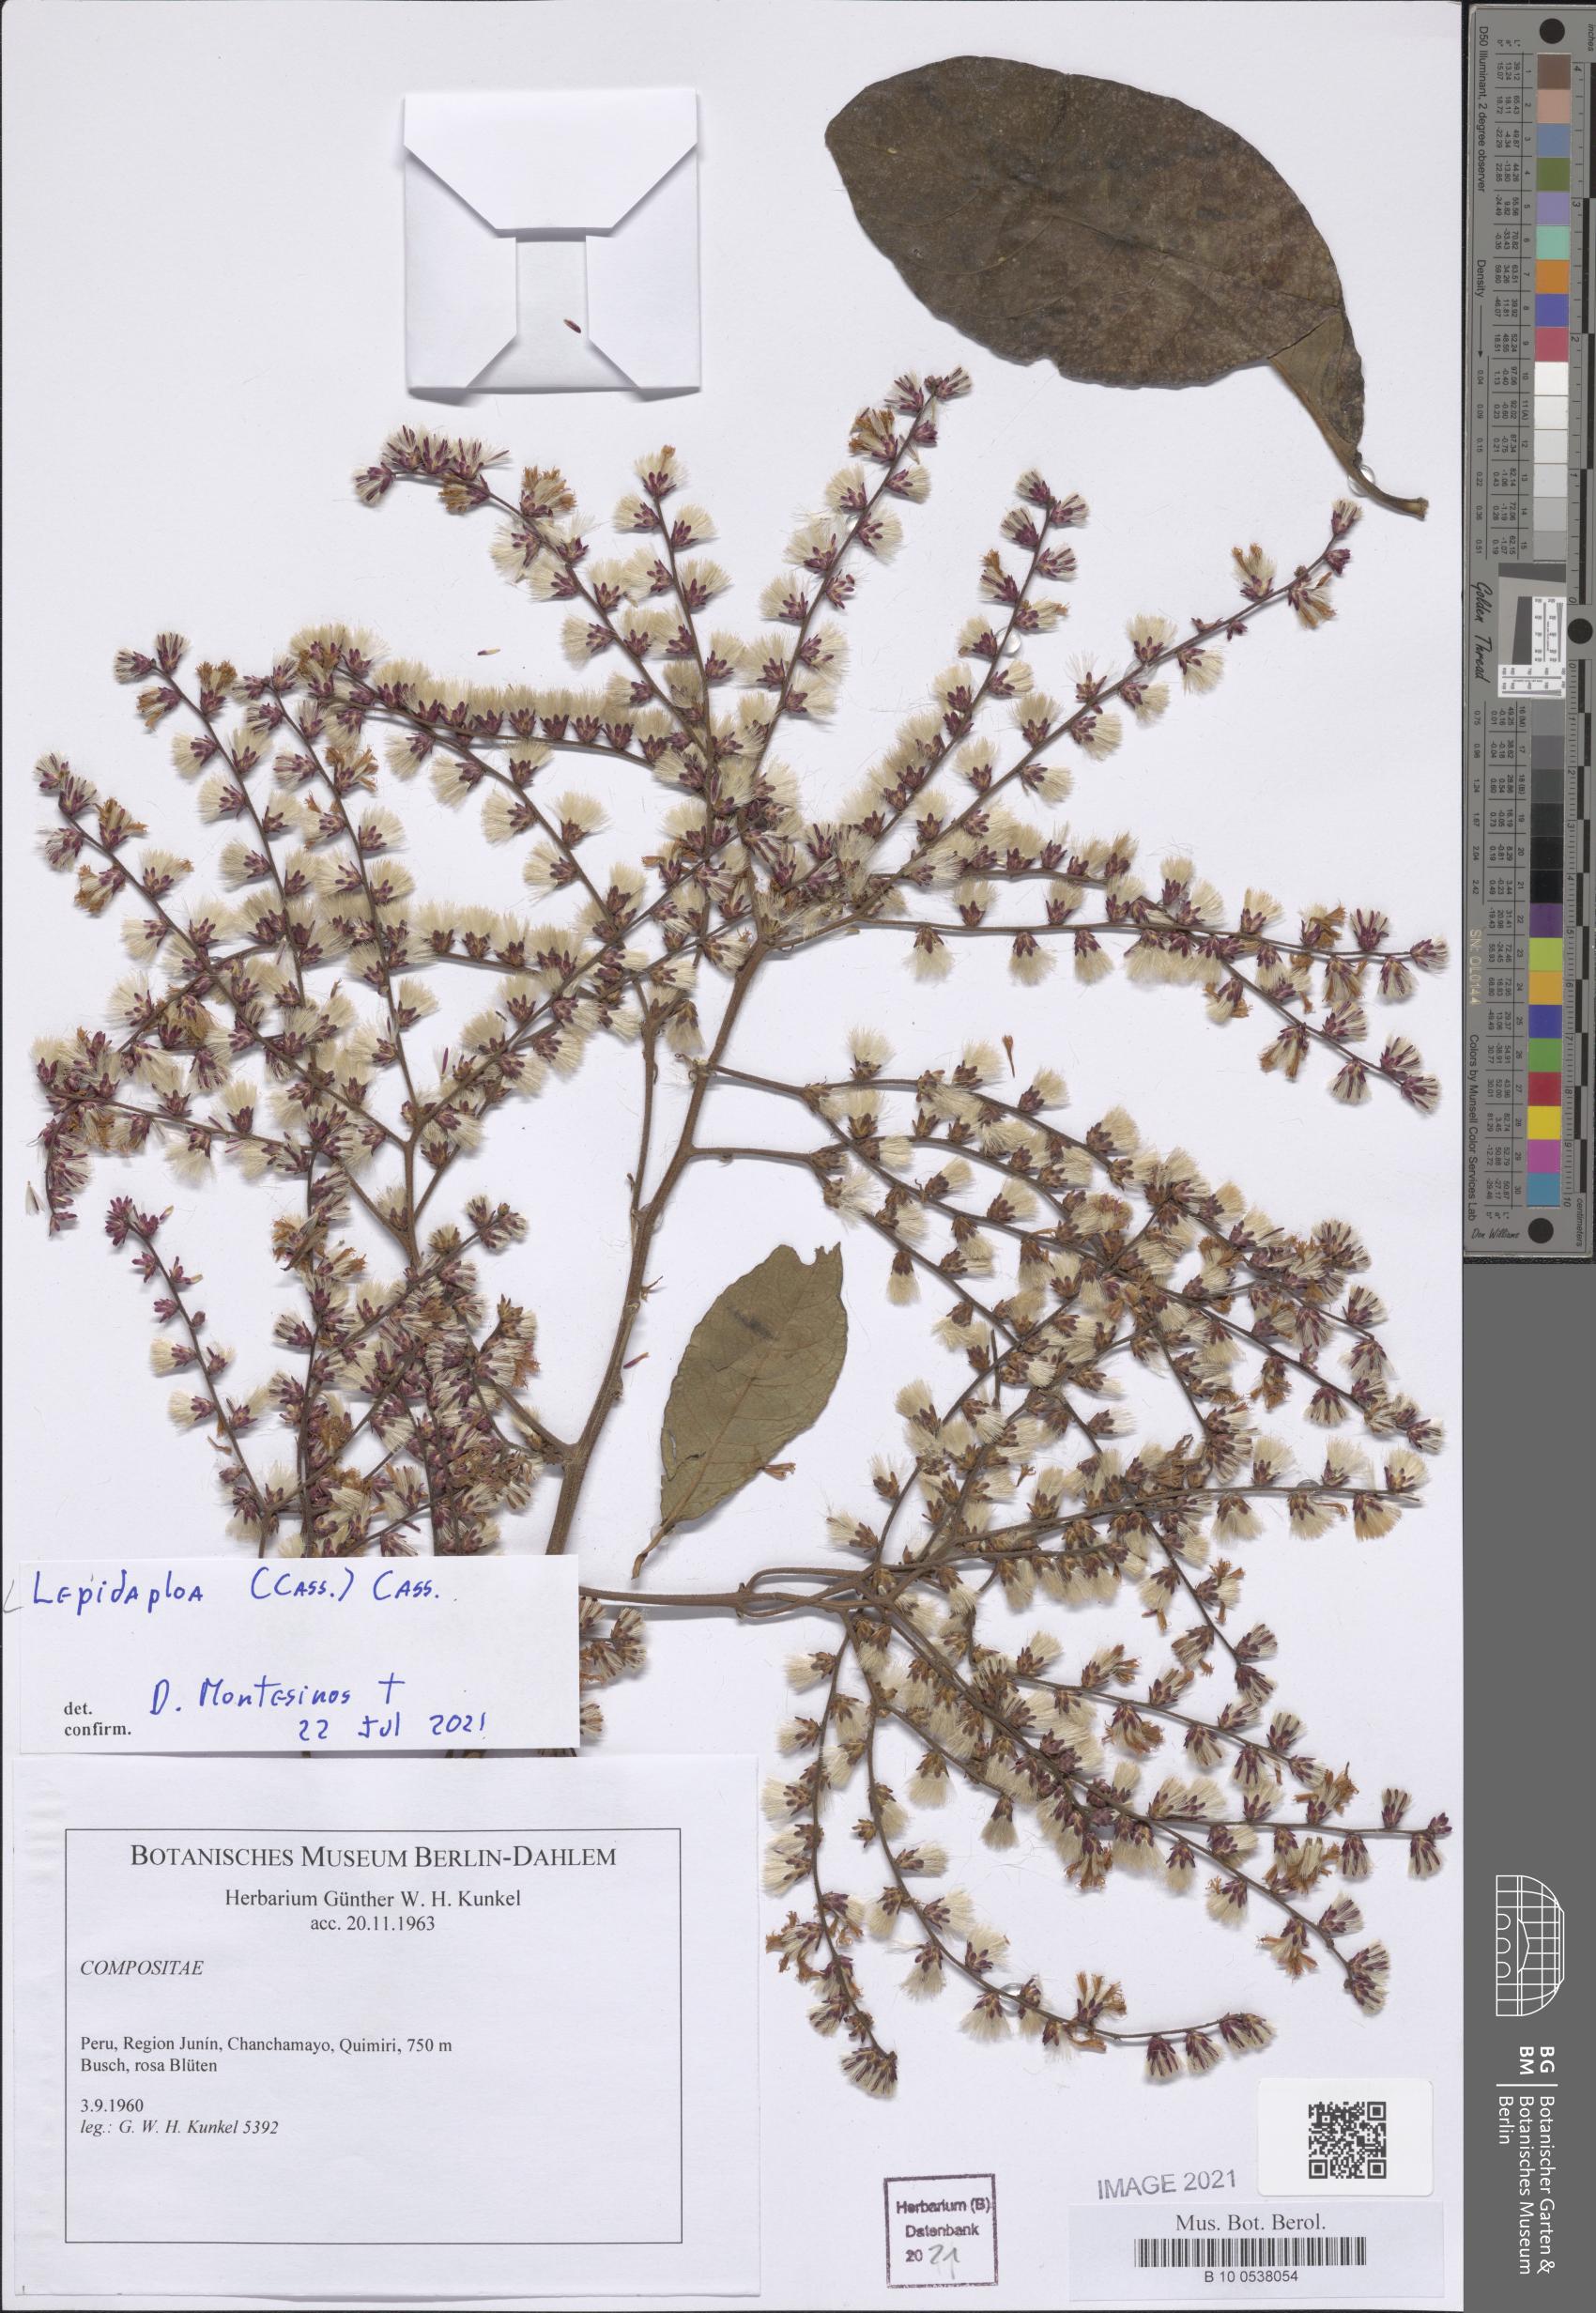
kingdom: Plantae
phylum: Tracheophyta
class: Magnoliopsida
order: Asterales
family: Asteraceae
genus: Lepidaploa
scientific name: Lepidaploa
